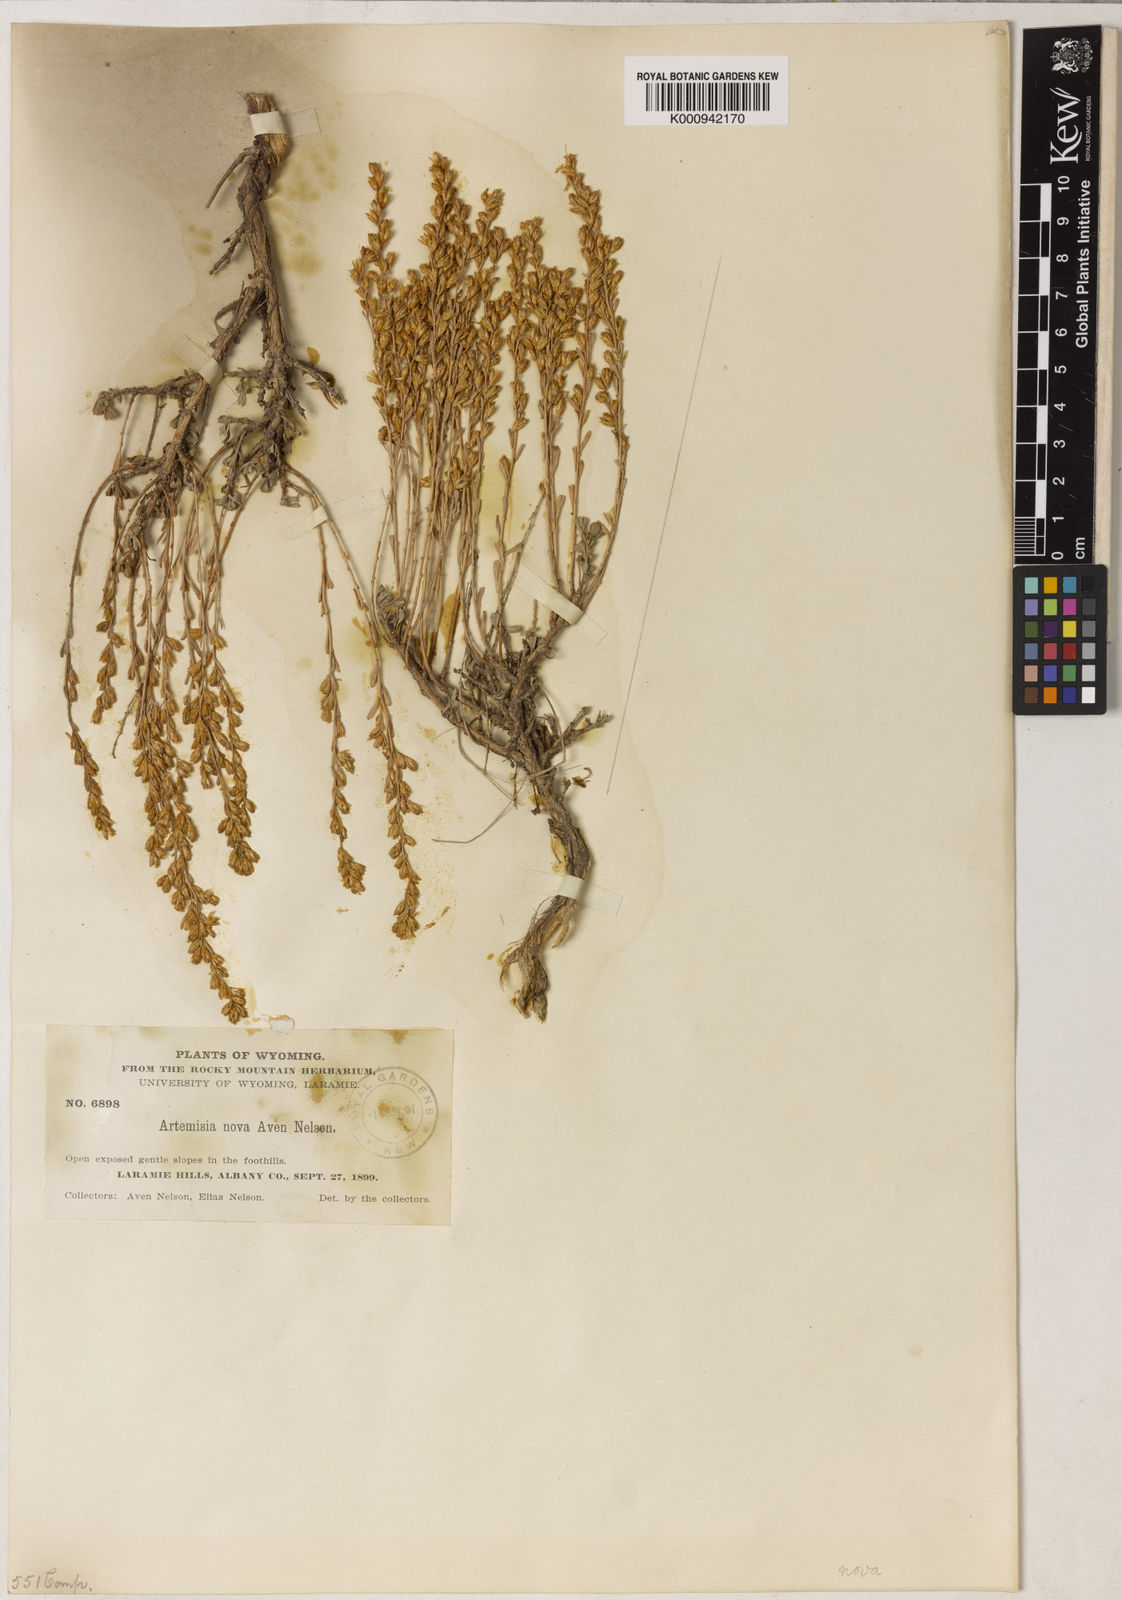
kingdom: Plantae
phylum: Tracheophyta
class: Magnoliopsida
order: Asterales
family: Asteraceae
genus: Artemisia
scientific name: Artemisia nova
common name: Black-sage
